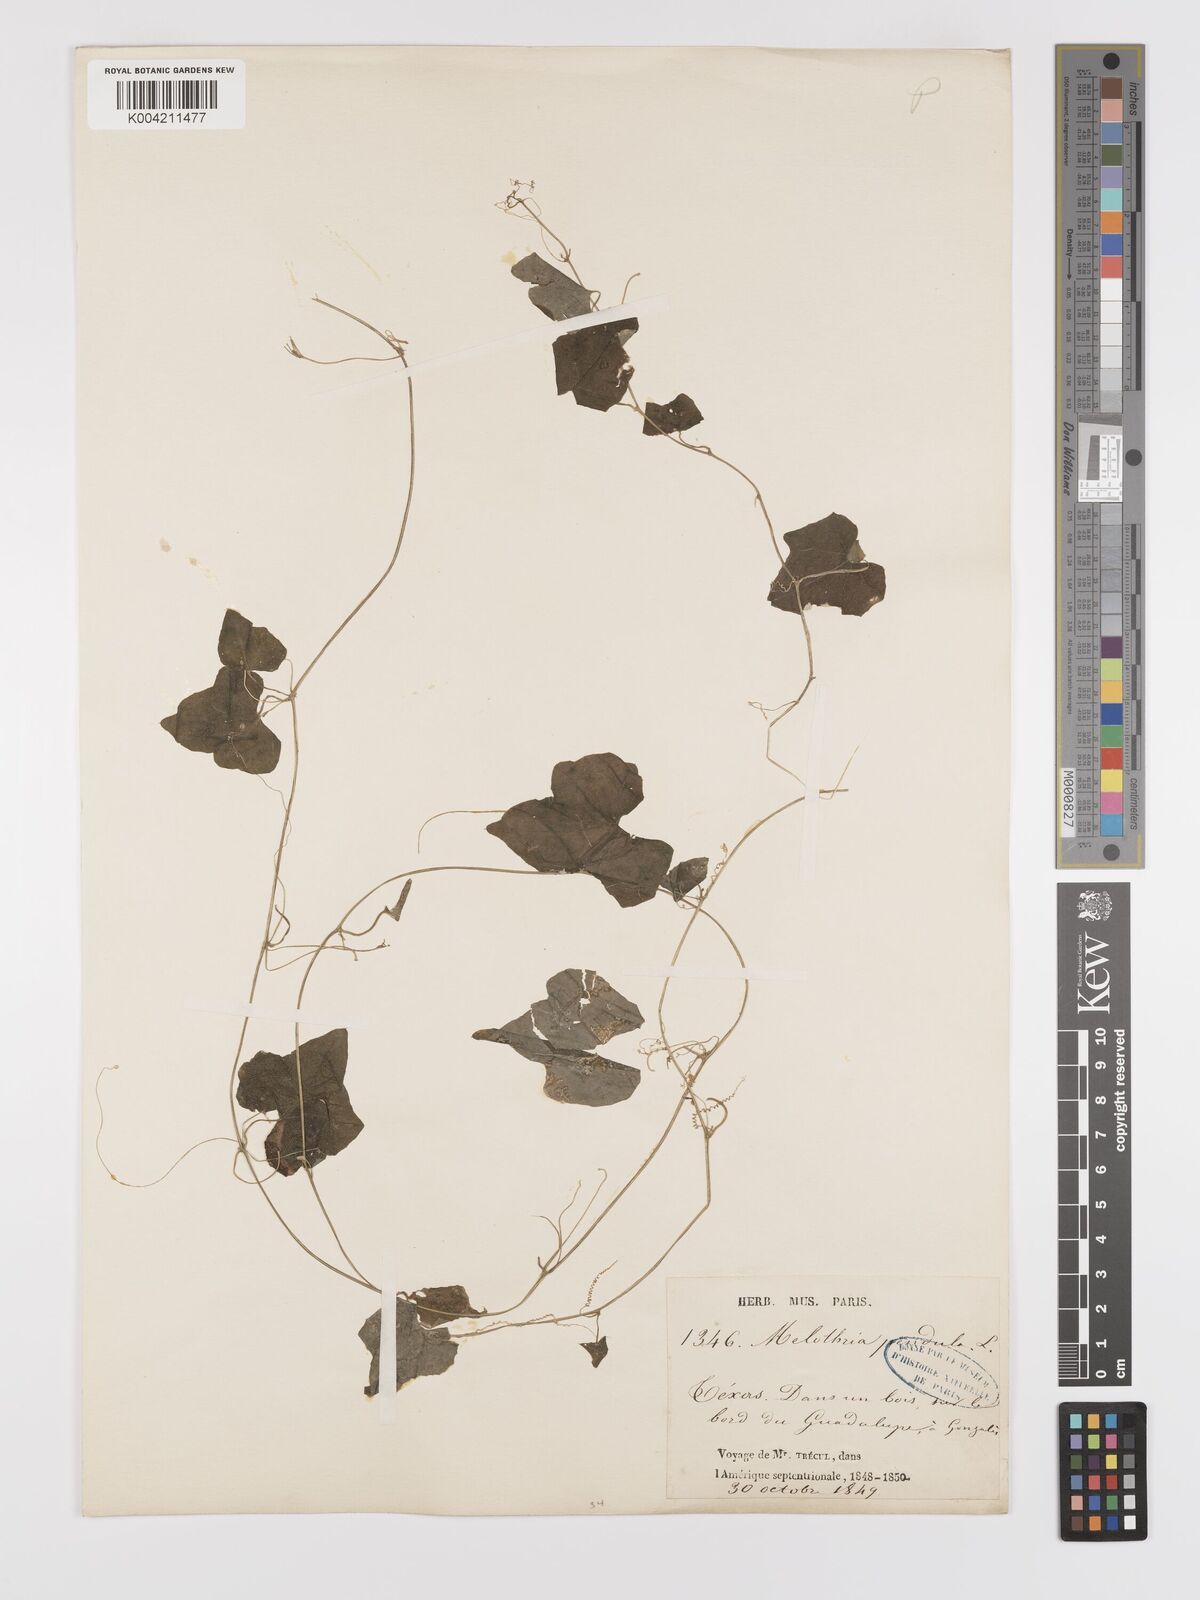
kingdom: Plantae
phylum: Tracheophyta
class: Magnoliopsida
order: Cucurbitales
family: Cucurbitaceae
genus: Melothria
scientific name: Melothria pendula
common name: Creeping-cucumber
